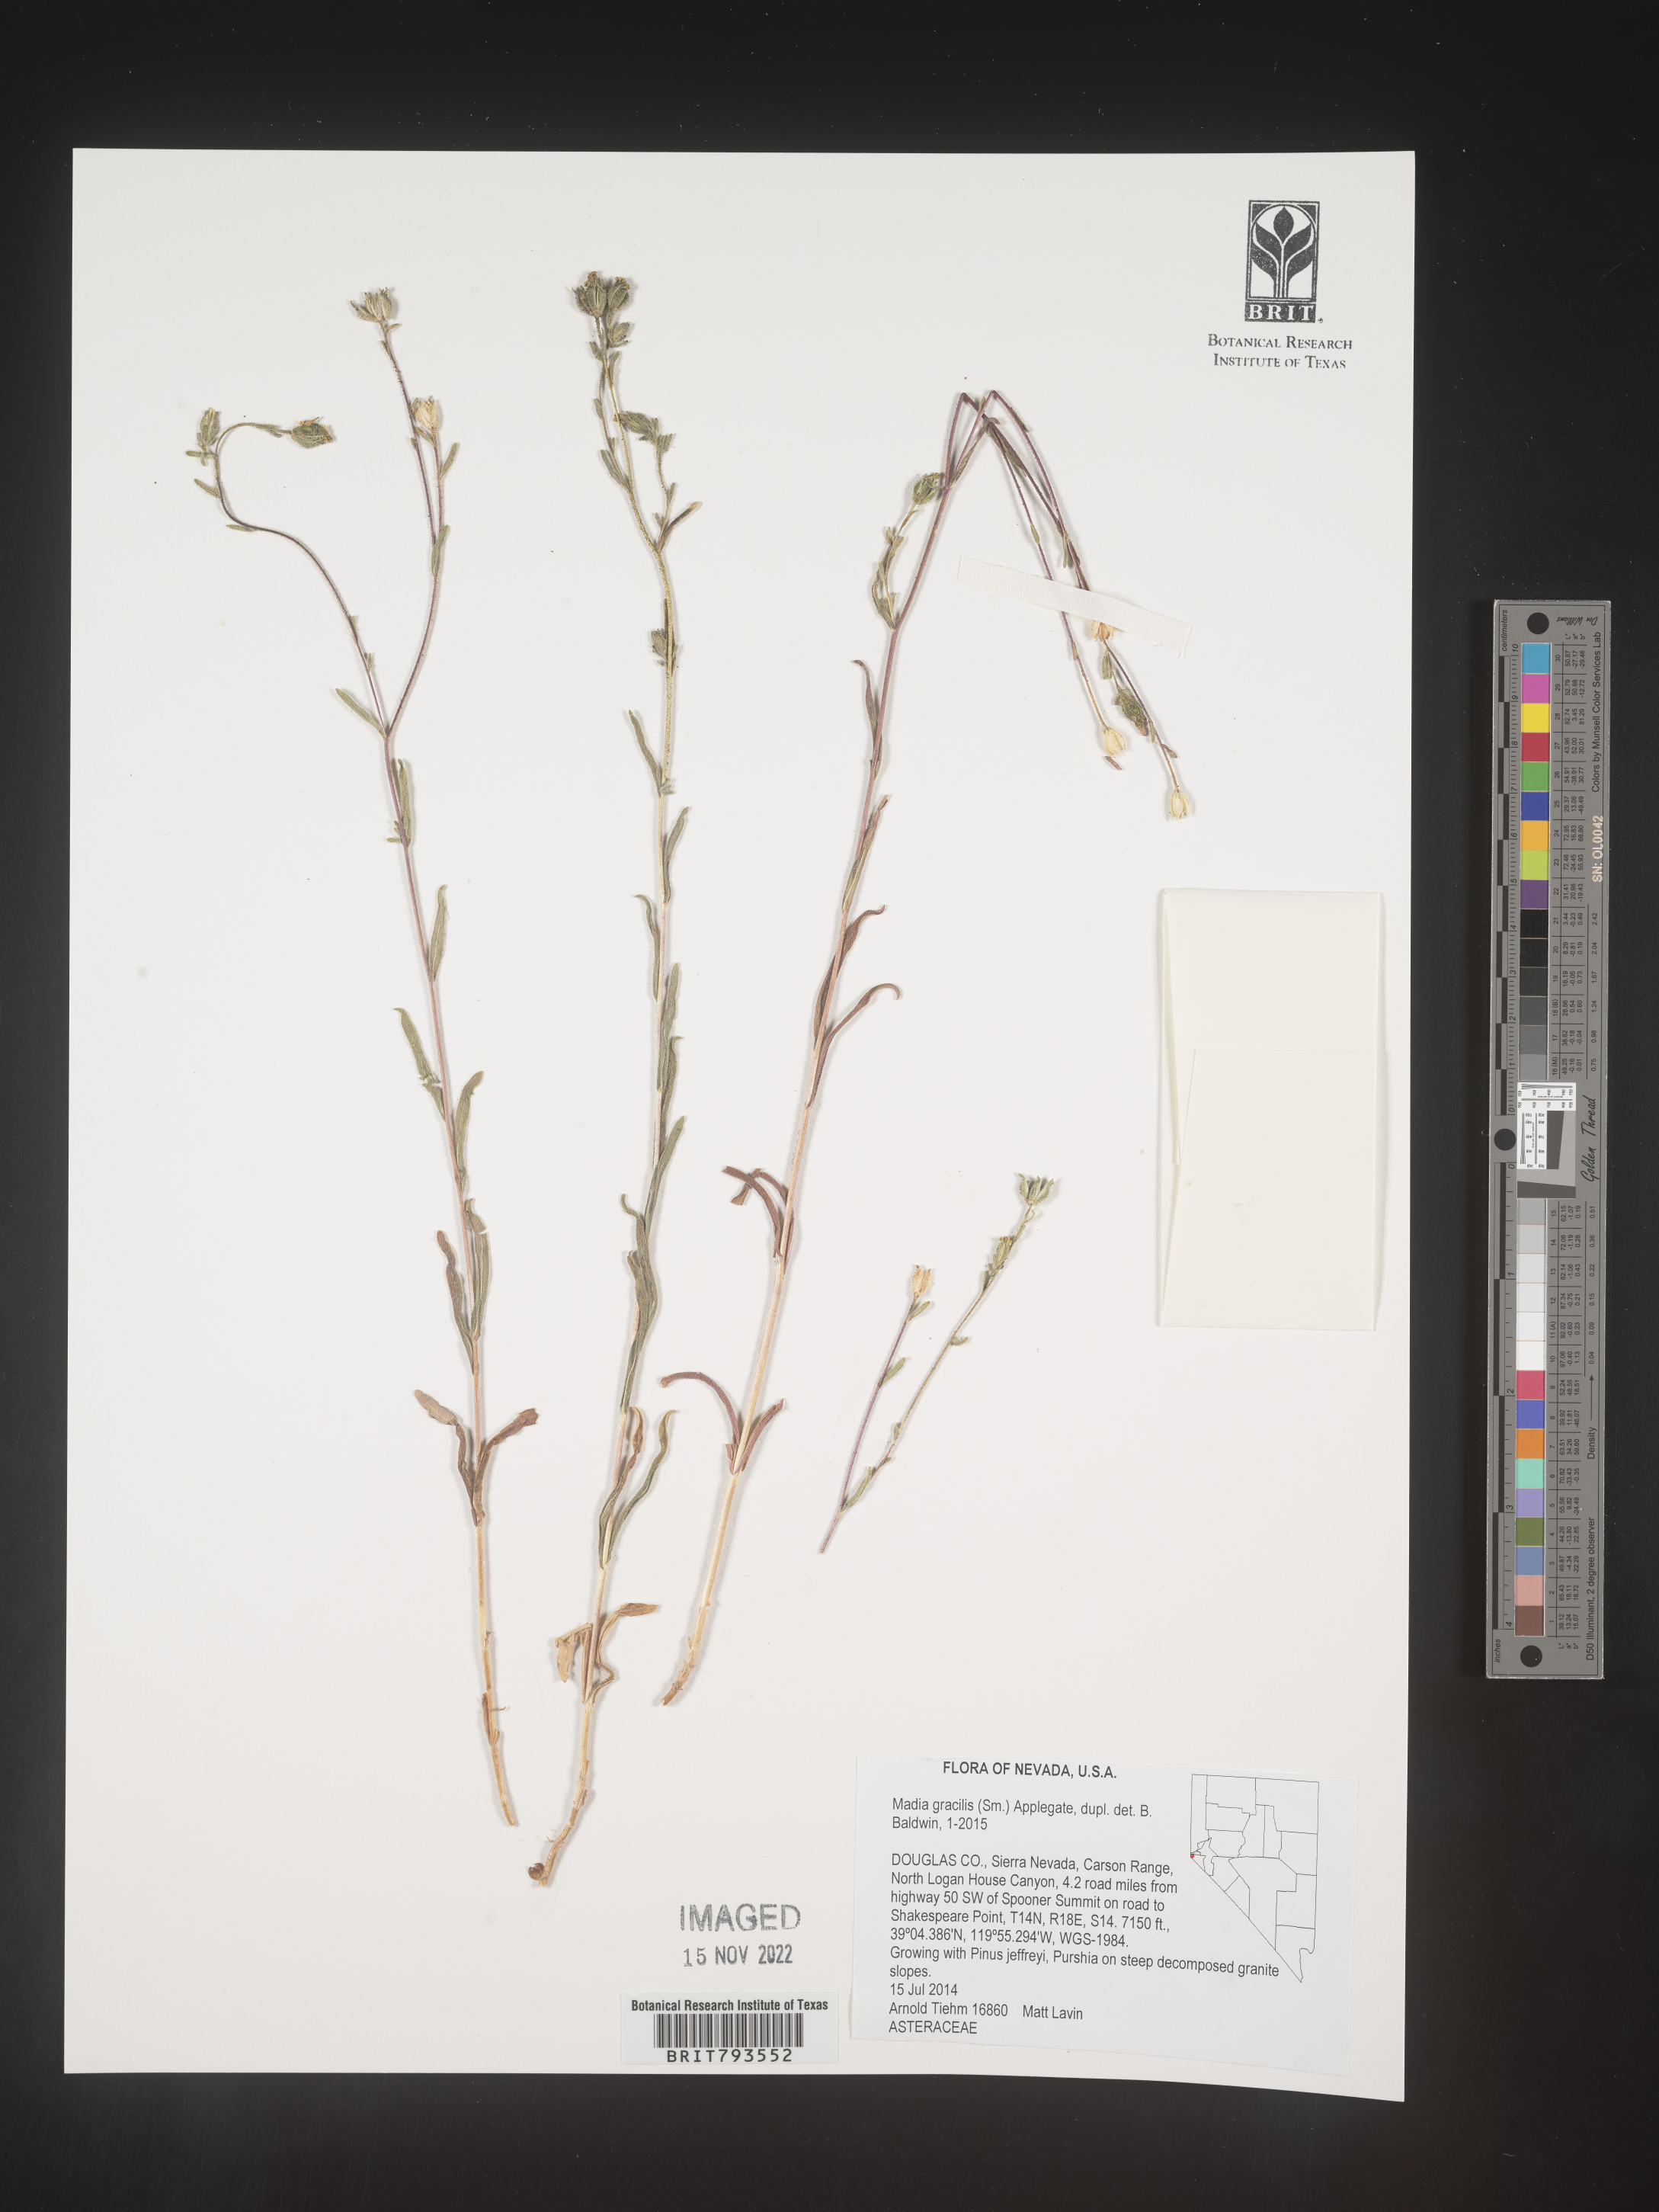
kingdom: Plantae
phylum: Tracheophyta
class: Magnoliopsida
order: Asterales
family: Asteraceae
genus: Madia
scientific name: Madia gracilis
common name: Grassy tarweed
